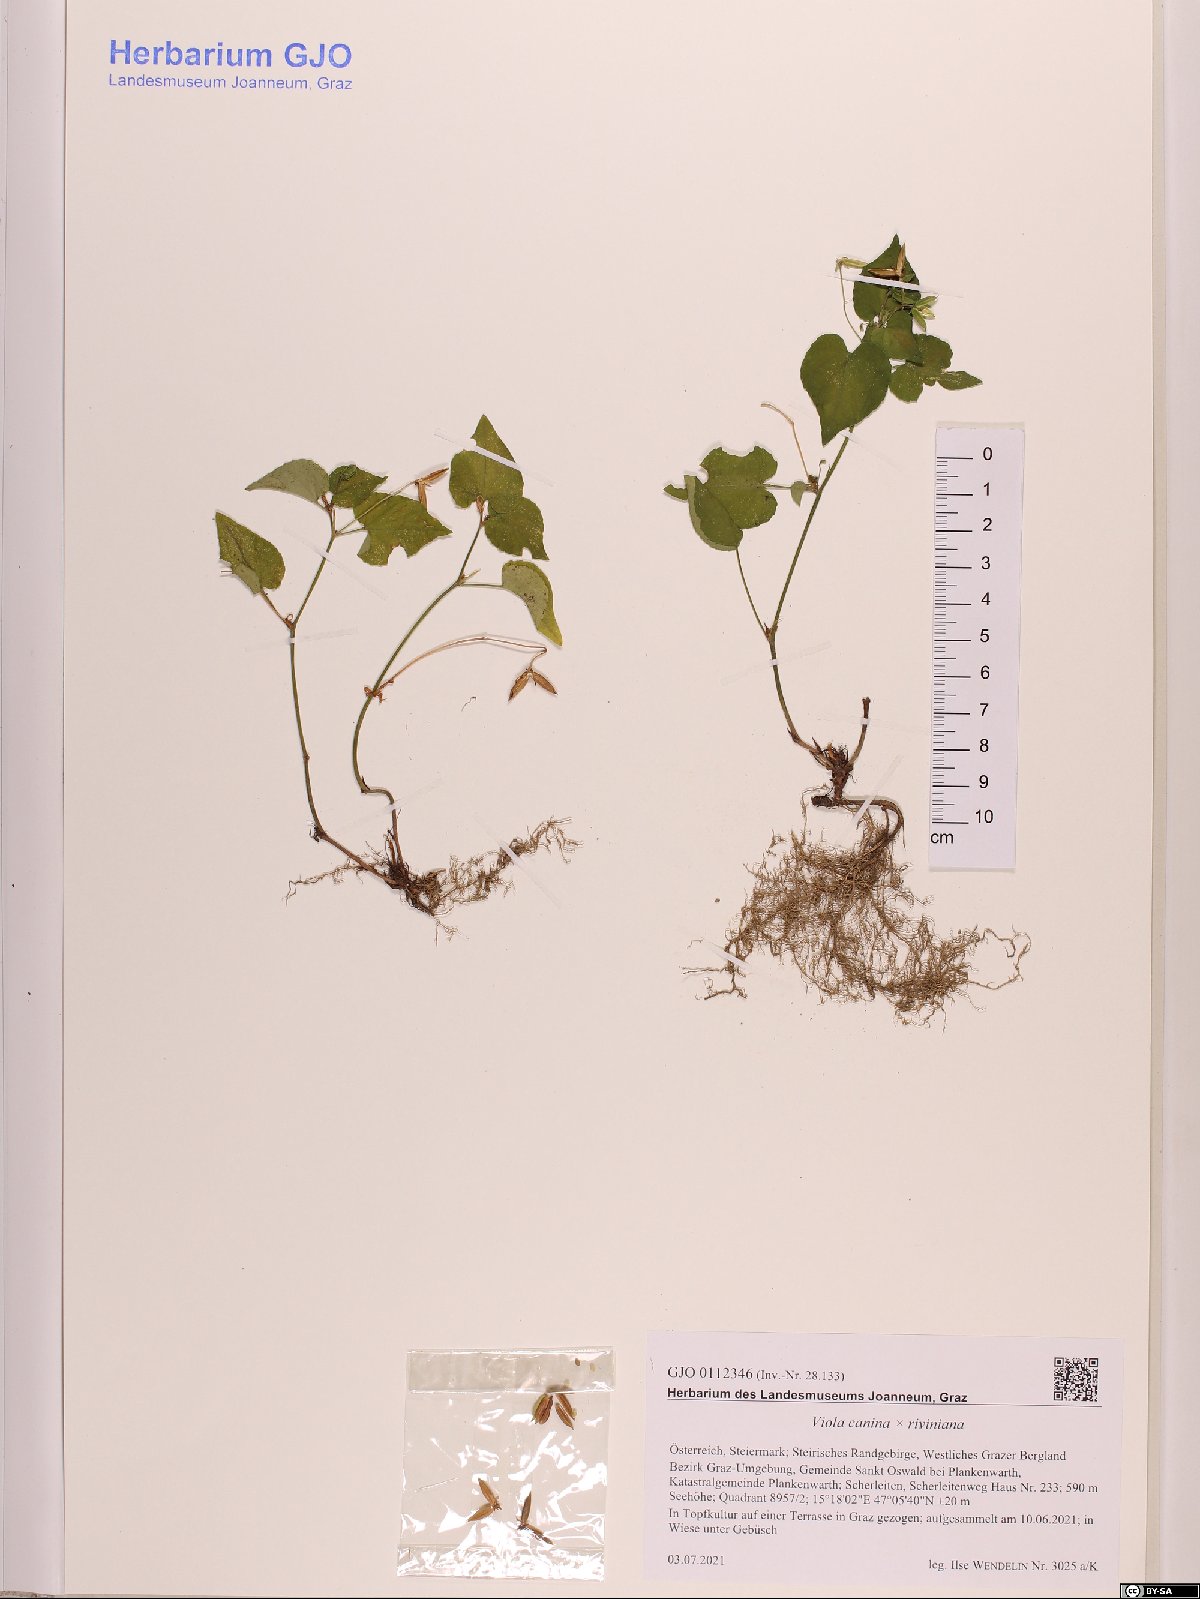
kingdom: Plantae
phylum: Tracheophyta
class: Magnoliopsida
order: Malpighiales
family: Violaceae
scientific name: Violaceae
